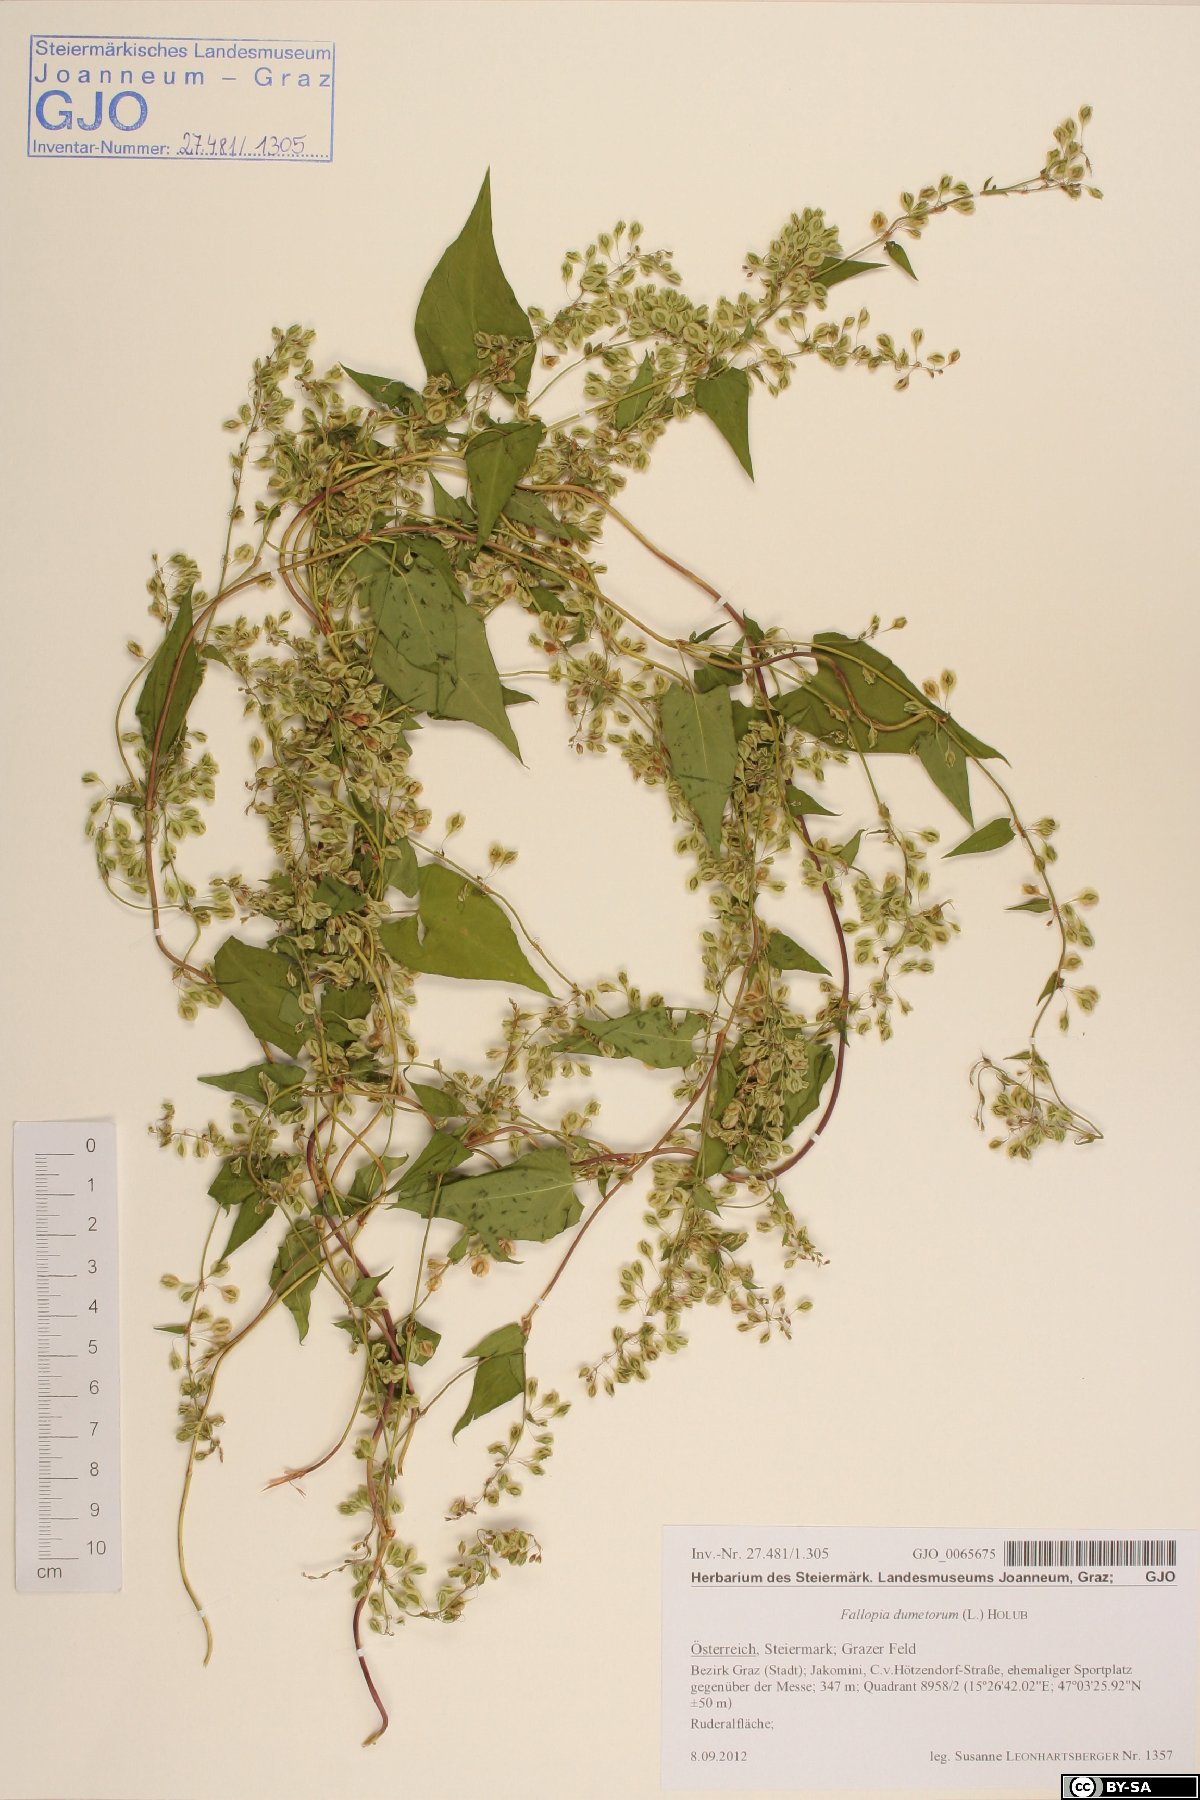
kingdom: Plantae
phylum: Tracheophyta
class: Magnoliopsida
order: Caryophyllales
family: Polygonaceae
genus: Fallopia
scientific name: Fallopia dumetorum
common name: Copse-bindweed
